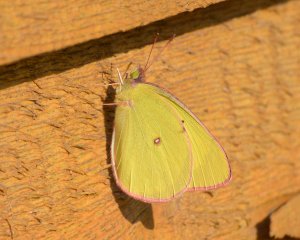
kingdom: Animalia
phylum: Arthropoda
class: Insecta
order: Lepidoptera
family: Pieridae
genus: Colias
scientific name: Colias interior
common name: Pink-edged Sulphur
